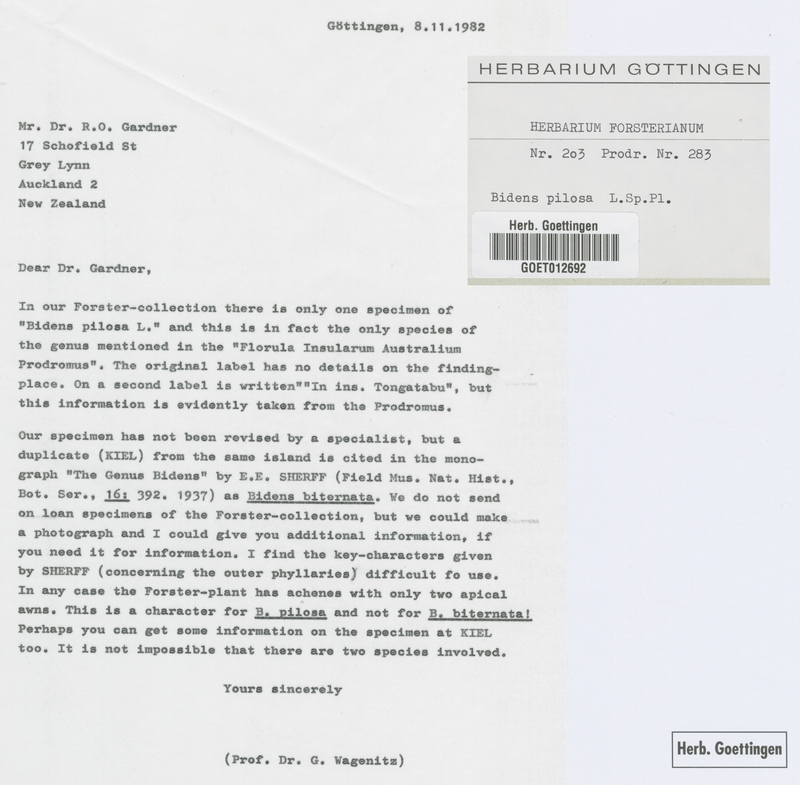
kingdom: Plantae
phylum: Tracheophyta
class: Magnoliopsida
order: Asterales
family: Asteraceae
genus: Bidens
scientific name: Bidens pilosa
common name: Black-jack
